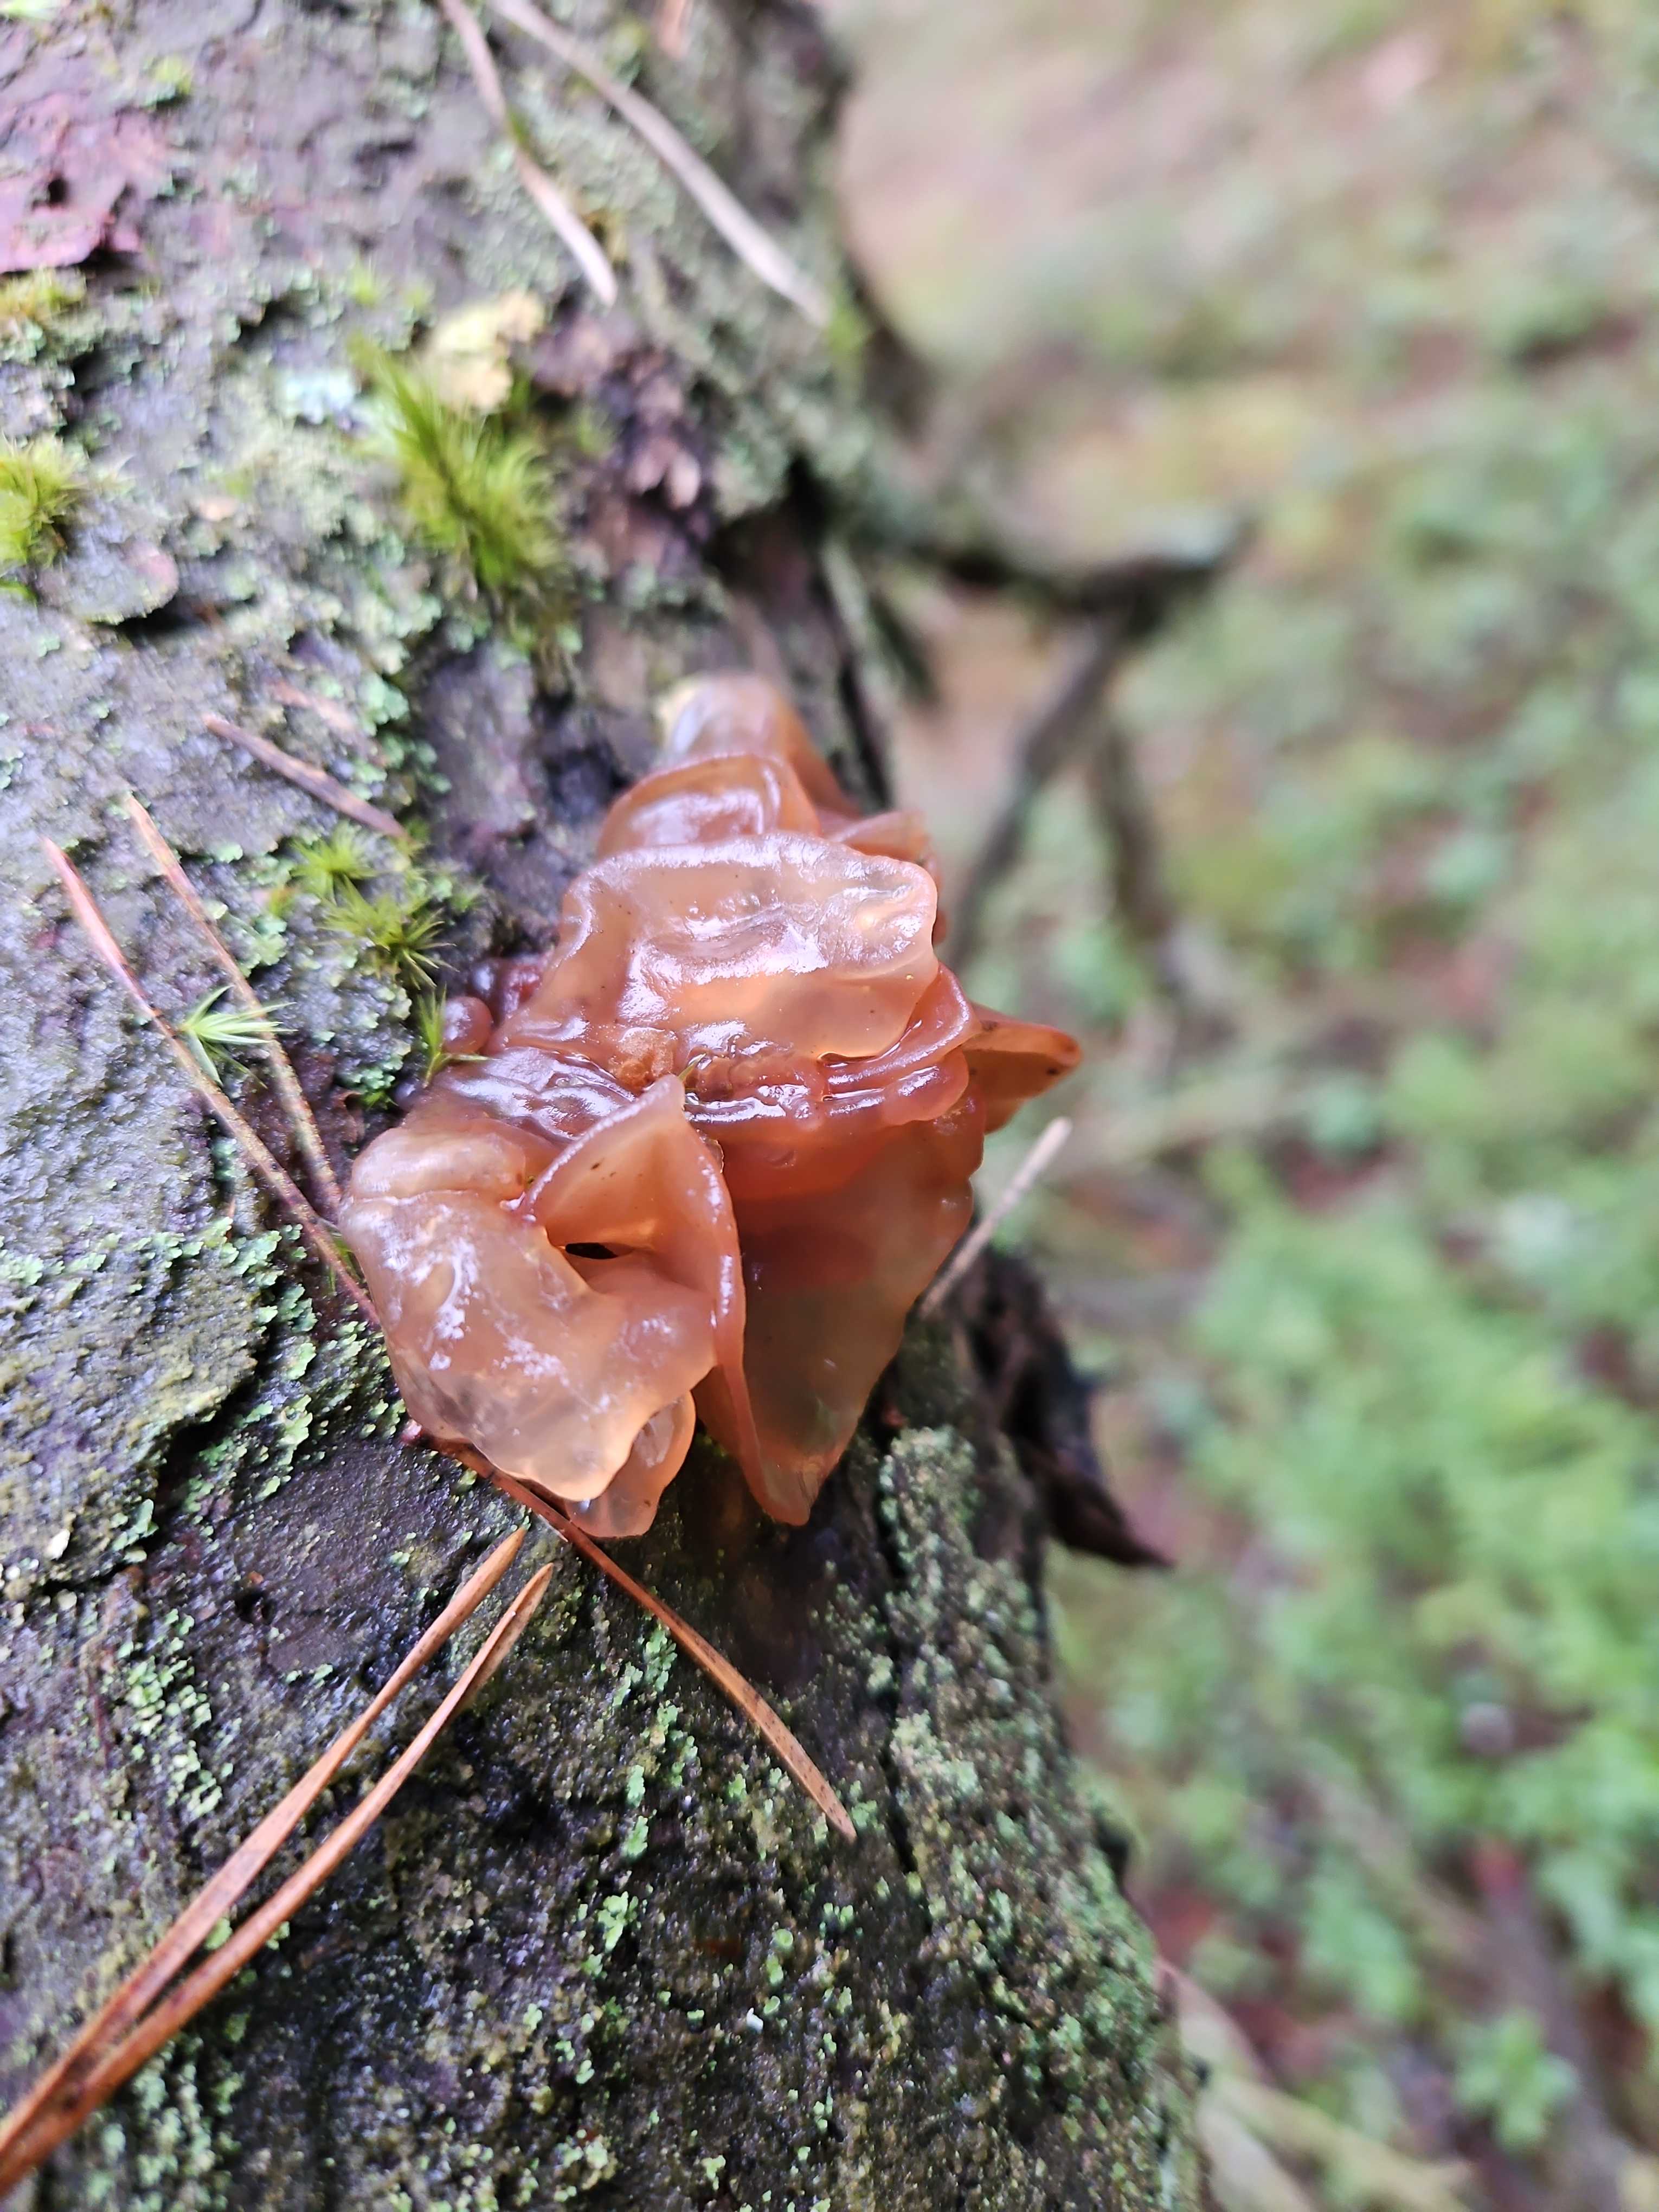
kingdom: Fungi
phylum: Basidiomycota
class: Tremellomycetes
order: Tremellales
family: Tremellaceae
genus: Phaeotremella
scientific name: Phaeotremella foliacea
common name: brun bævresvamp
